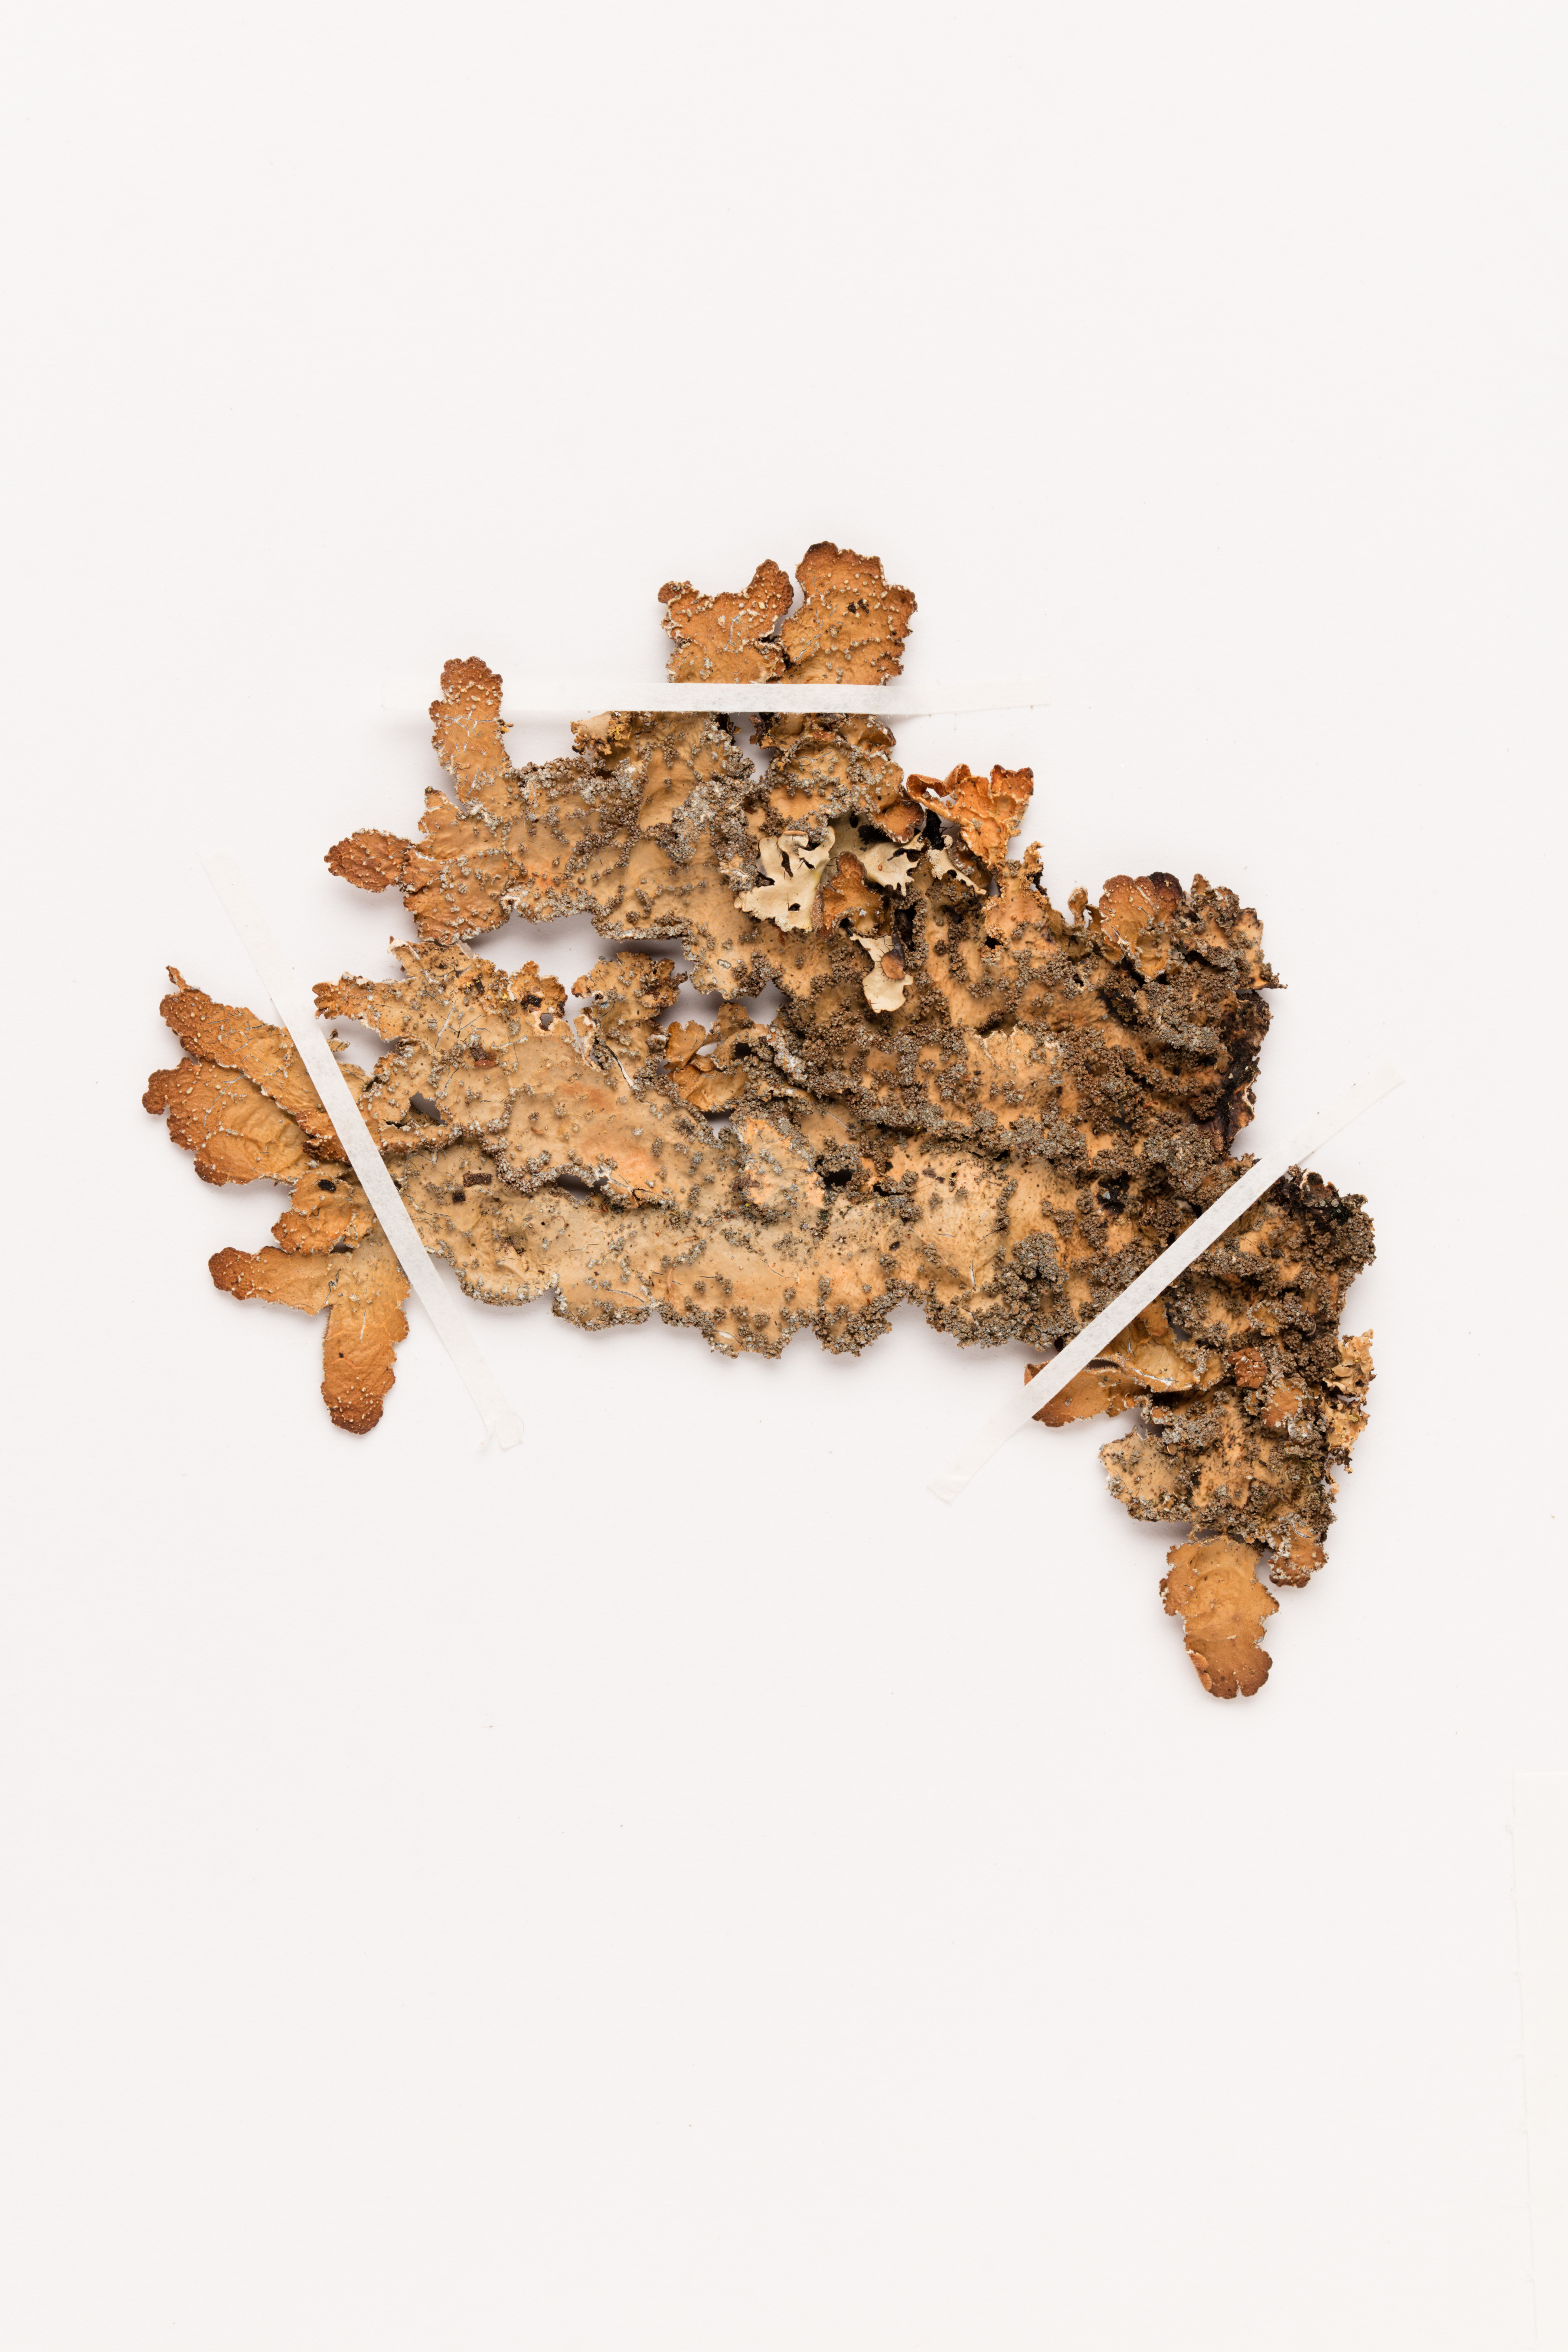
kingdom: Fungi
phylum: Ascomycota
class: Lecanoromycetes
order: Peltigerales
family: Lobariaceae
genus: Pseudocyphellaria
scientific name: Pseudocyphellaria argyracea
